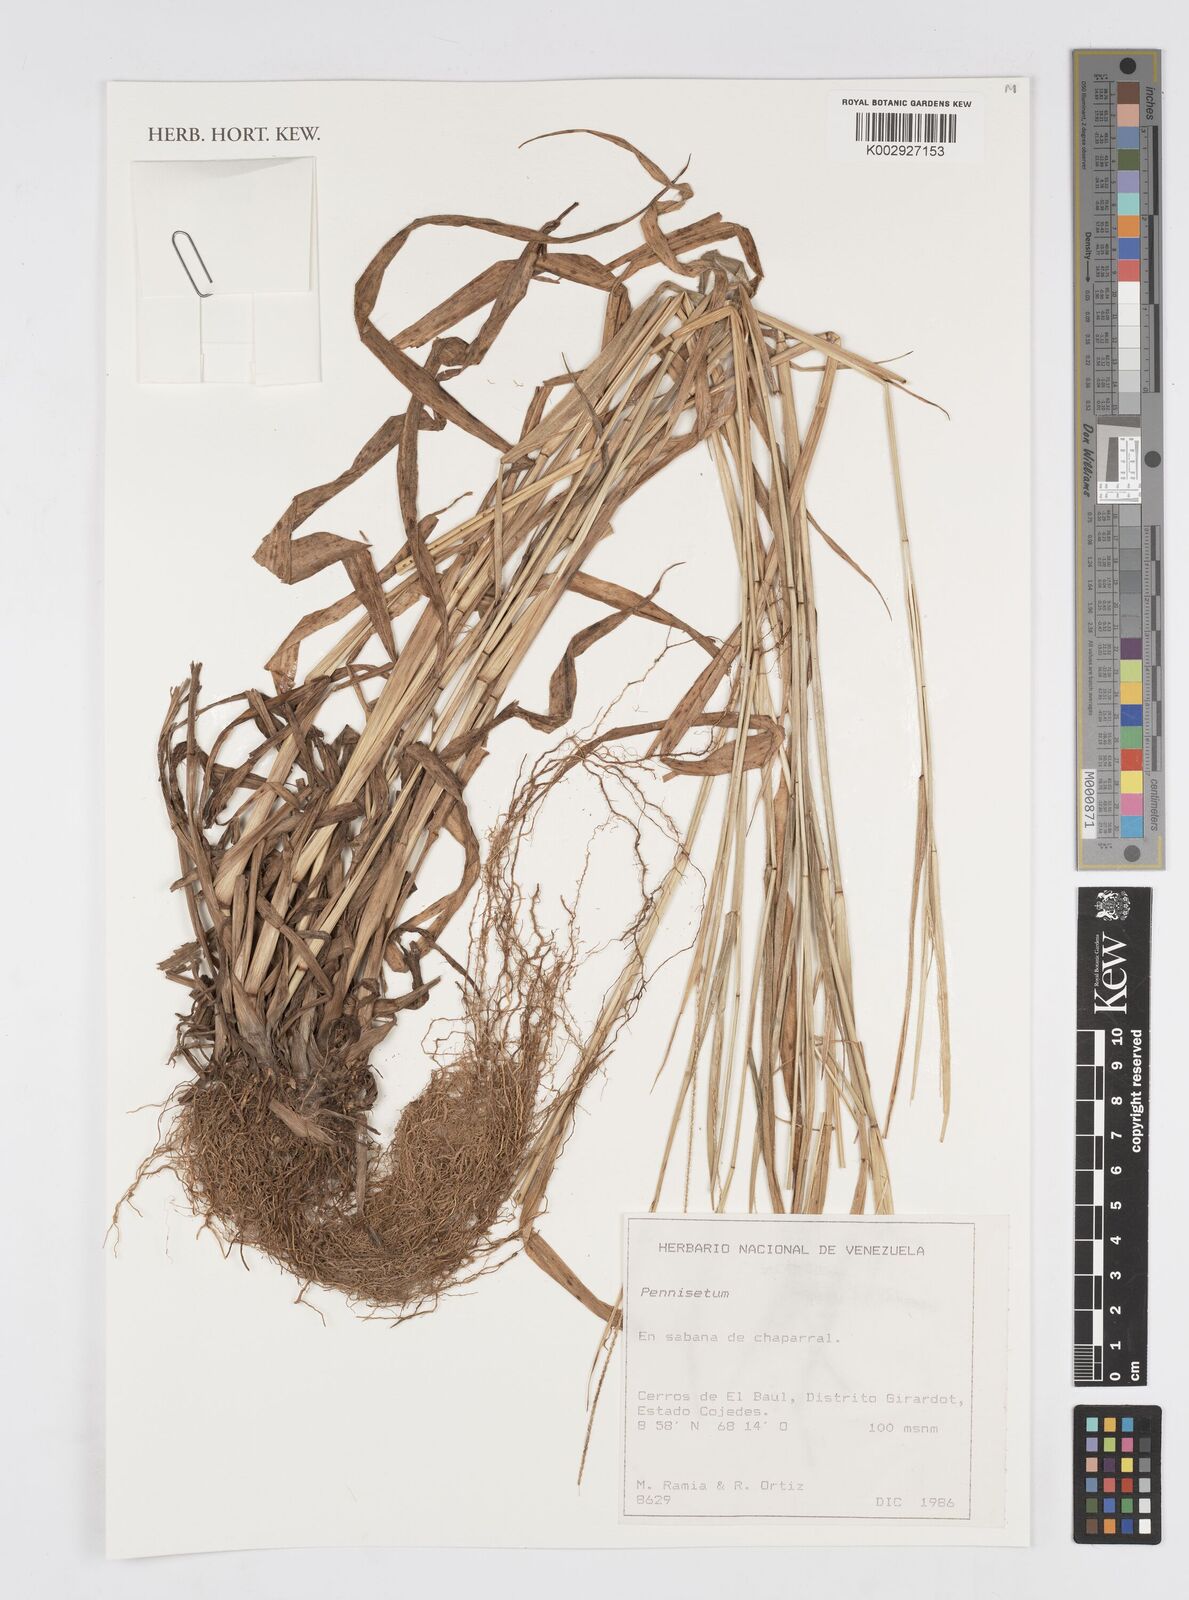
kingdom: Plantae
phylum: Tracheophyta
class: Liliopsida
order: Poales
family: Poaceae
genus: Cenchrus
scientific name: Cenchrus Pennisetum spec
